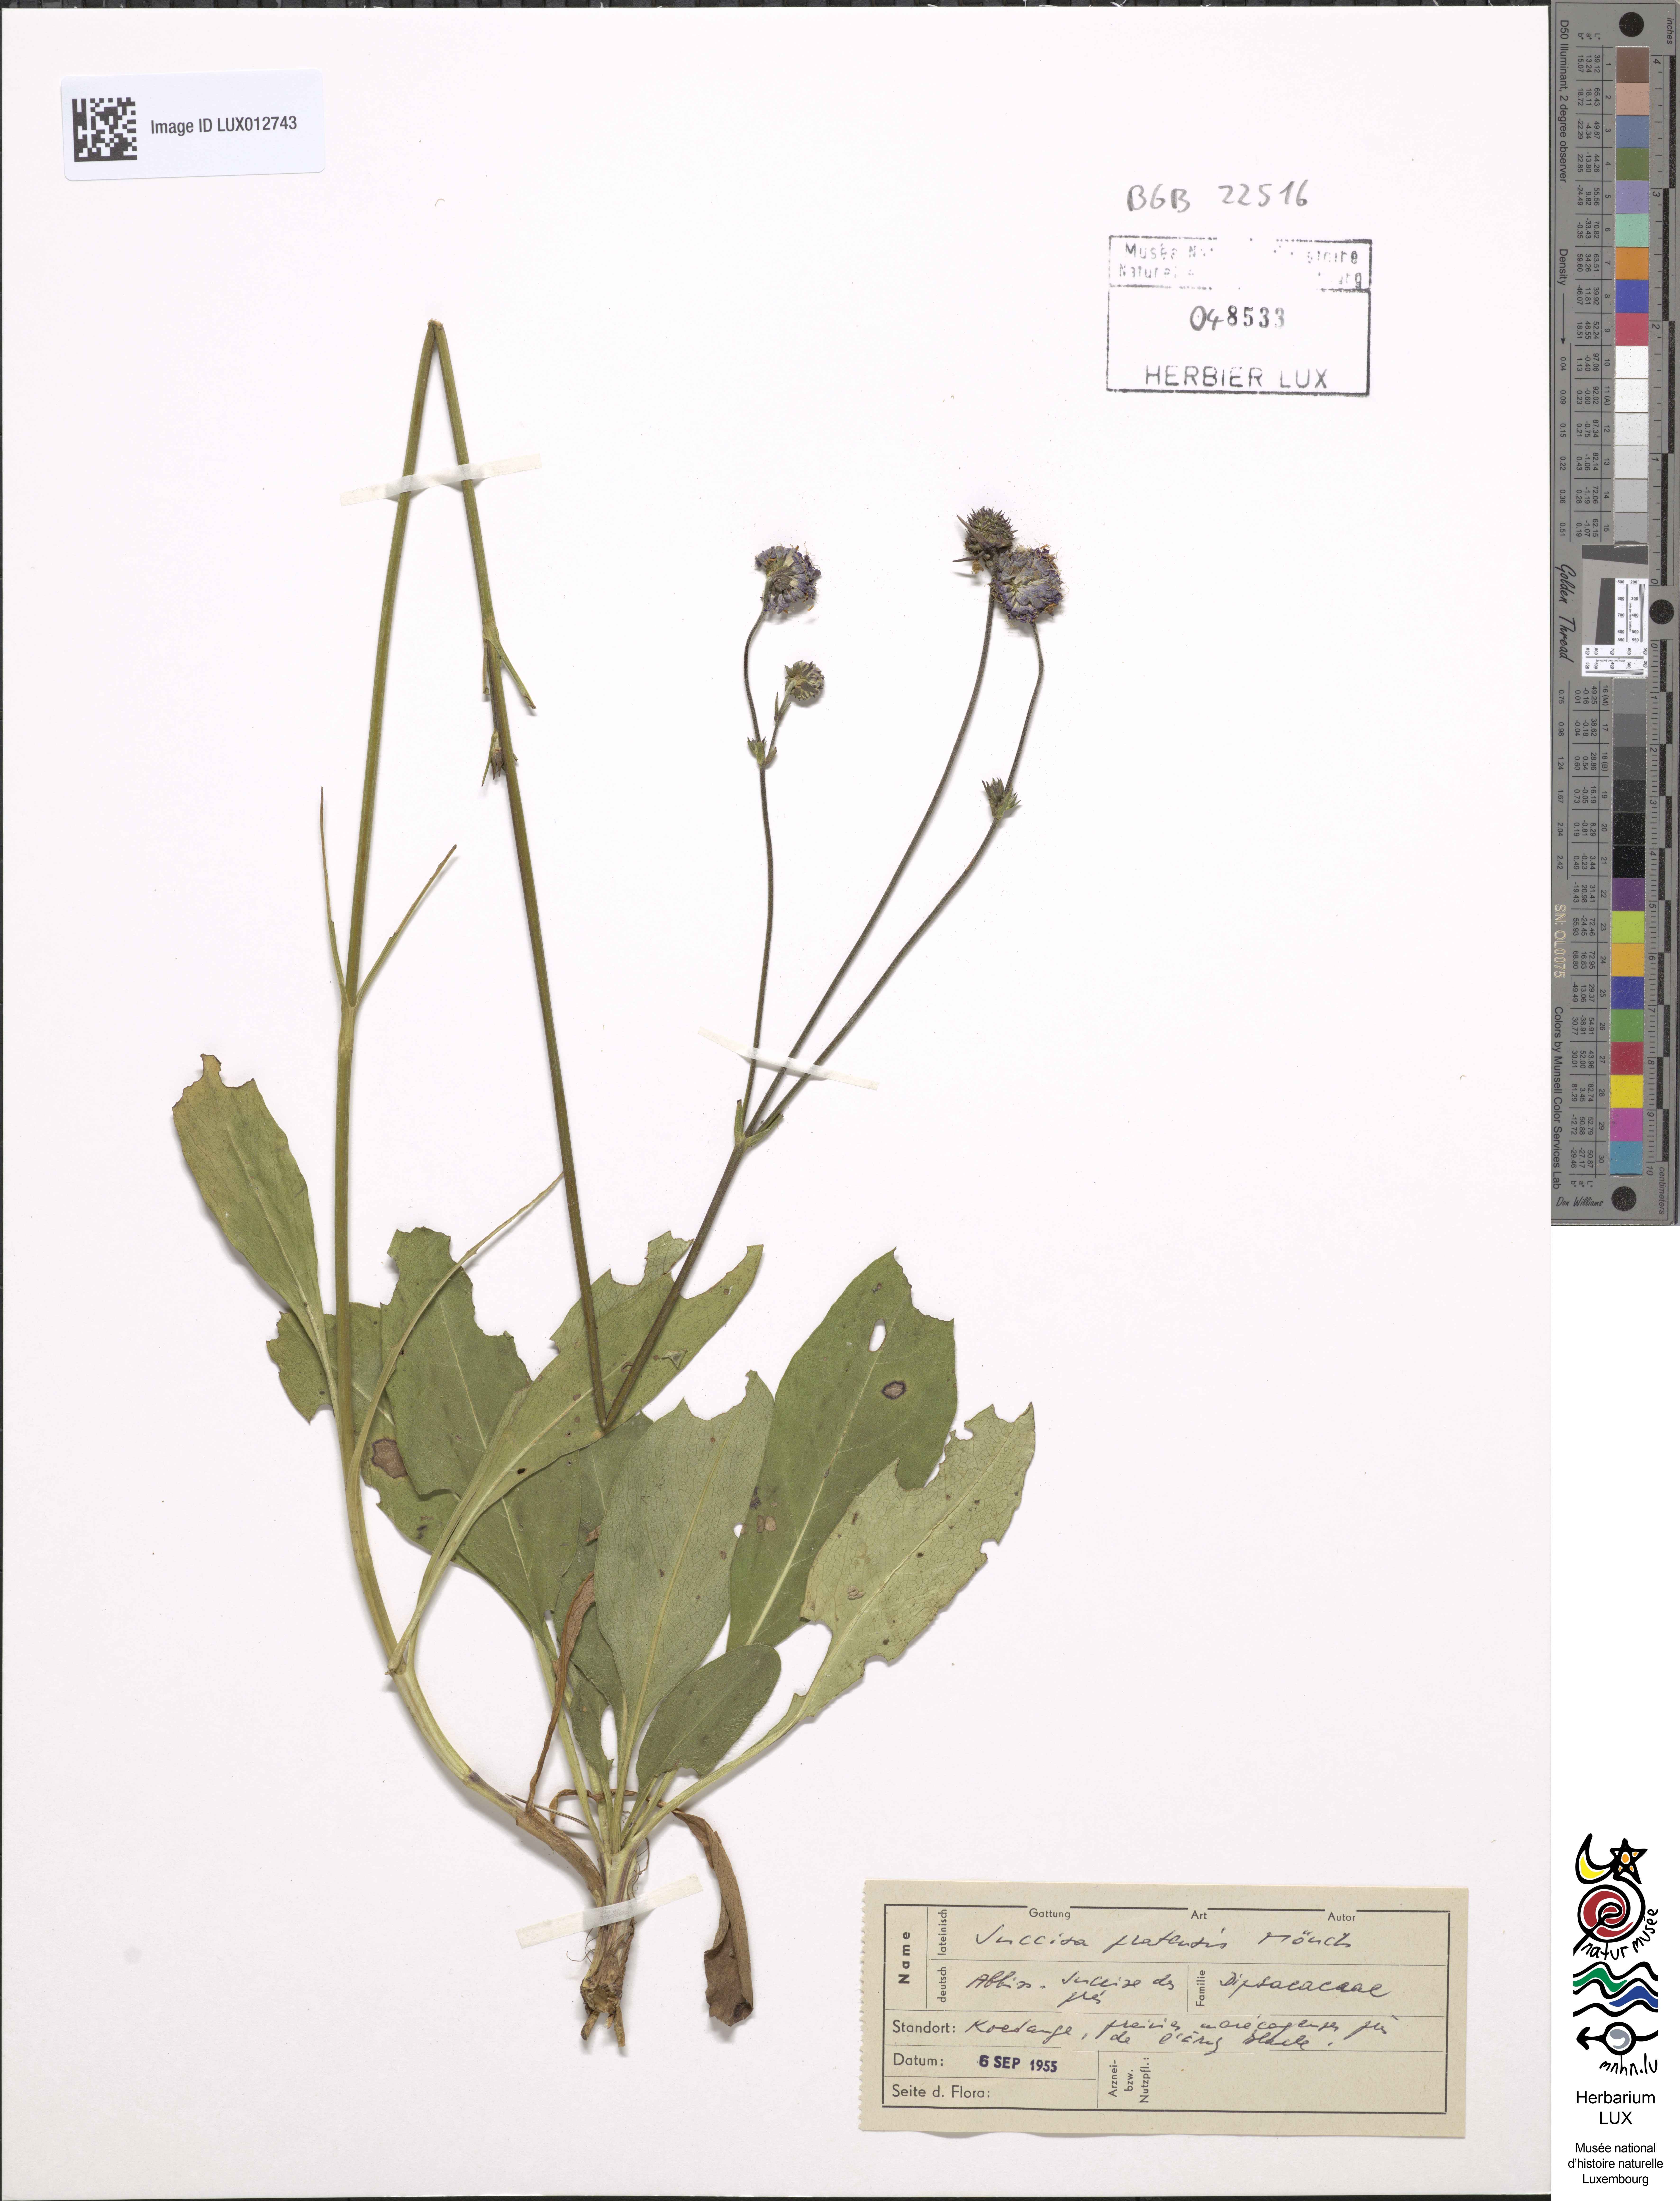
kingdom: Plantae
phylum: Tracheophyta
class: Magnoliopsida
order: Dipsacales
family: Caprifoliaceae
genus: Succisa
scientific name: Succisa pratensis
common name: Devil's-bit
